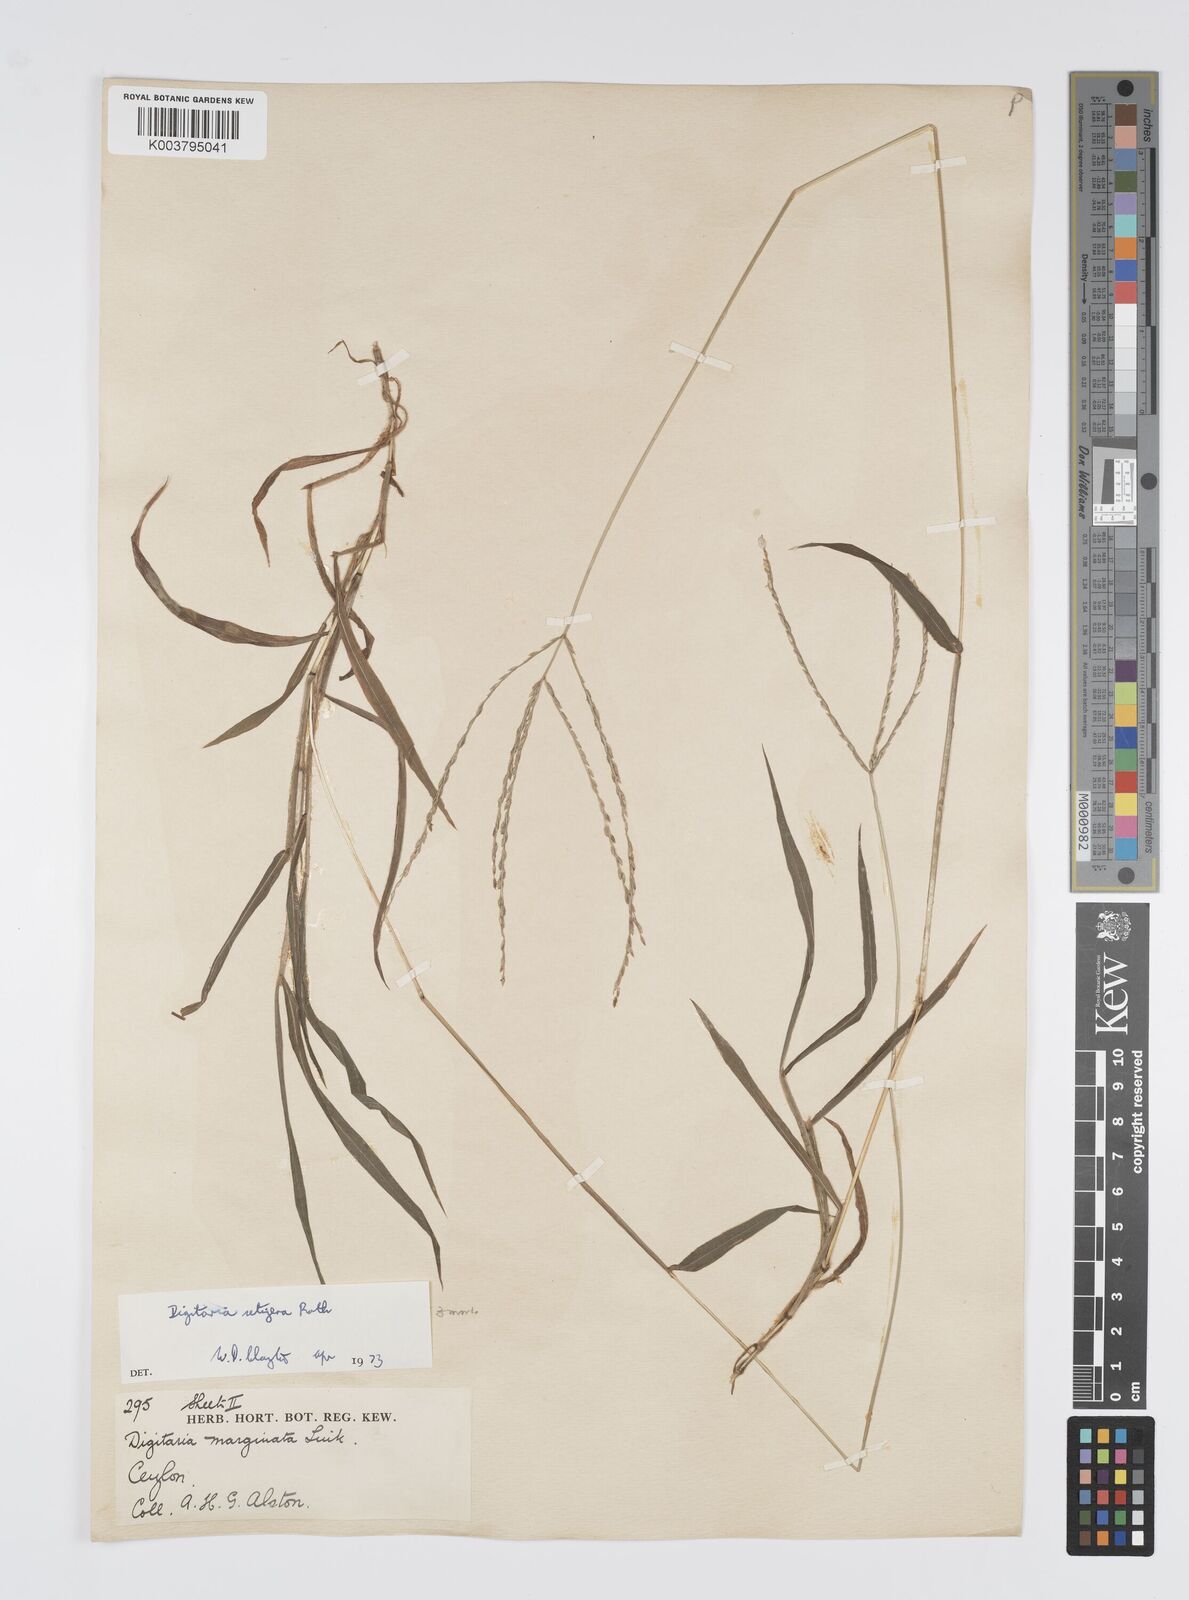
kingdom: Plantae
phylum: Tracheophyta
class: Liliopsida
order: Poales
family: Poaceae
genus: Digitaria
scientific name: Digitaria setigera
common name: East indian crabgrass
